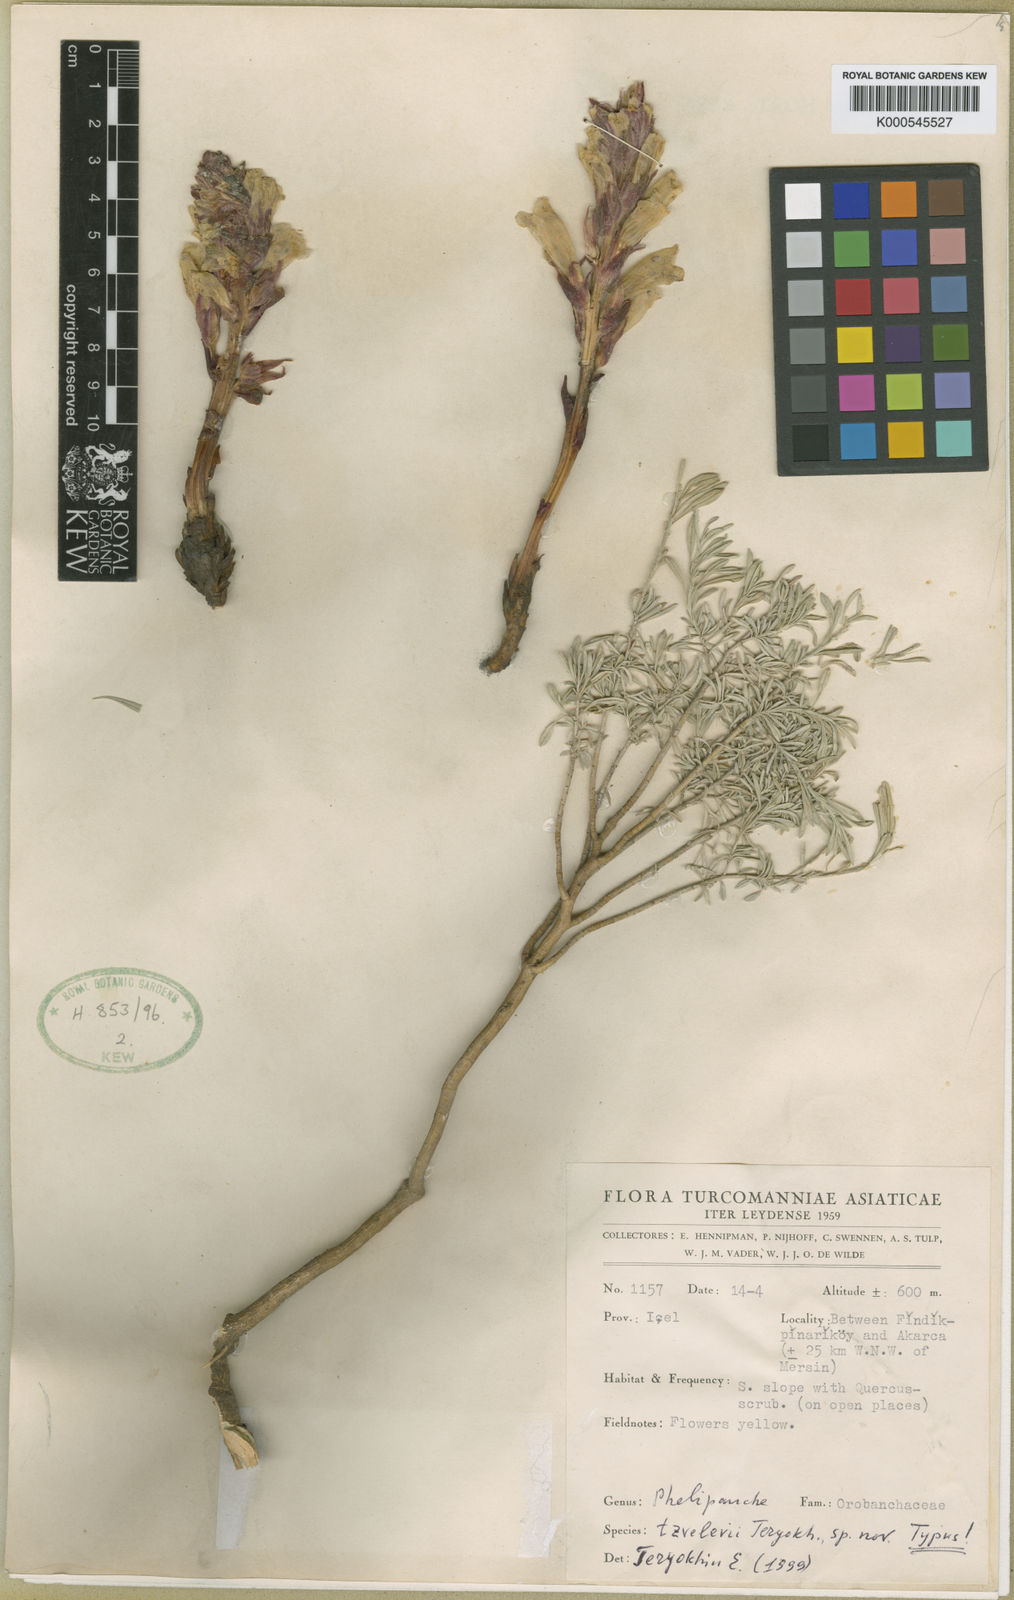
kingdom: Plantae
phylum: Tracheophyta
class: Magnoliopsida
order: Lamiales
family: Orobanchaceae
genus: Orobanche
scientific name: Orobanche
